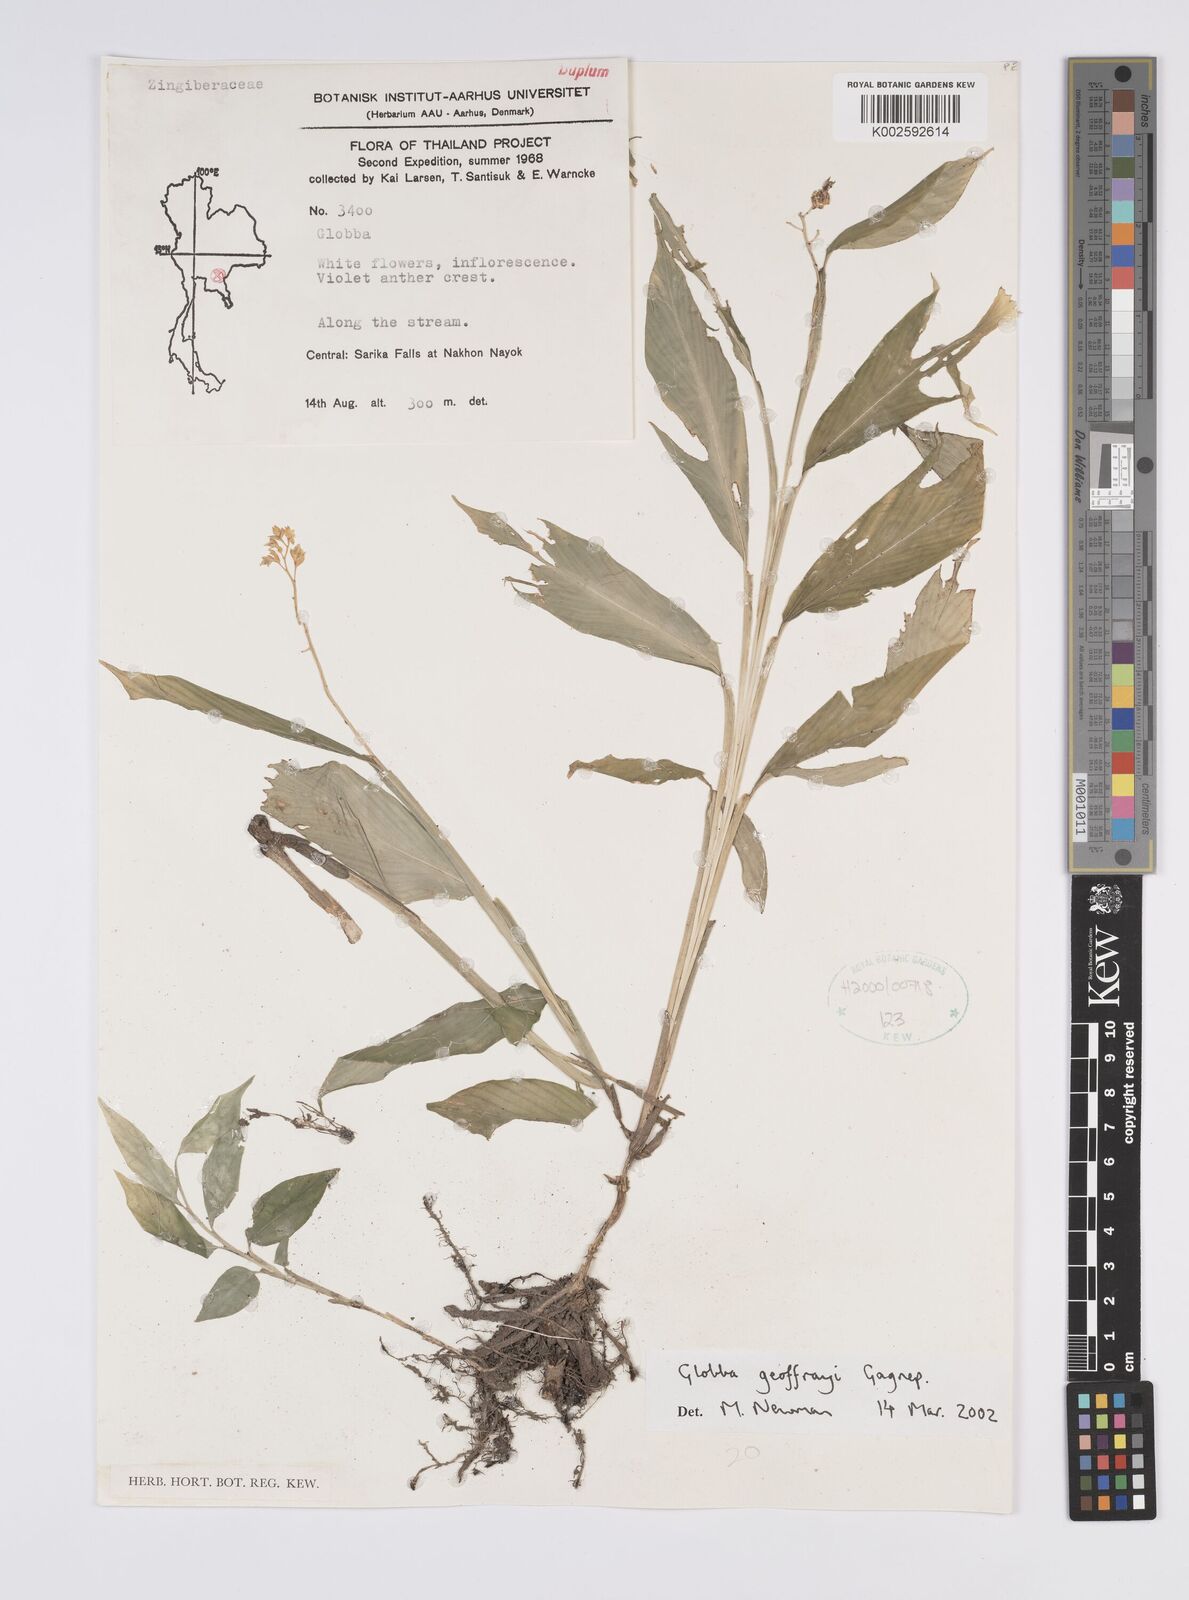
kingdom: Plantae
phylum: Tracheophyta
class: Liliopsida
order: Zingiberales
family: Zingiberaceae
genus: Globba
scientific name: Globba geoffrayi
